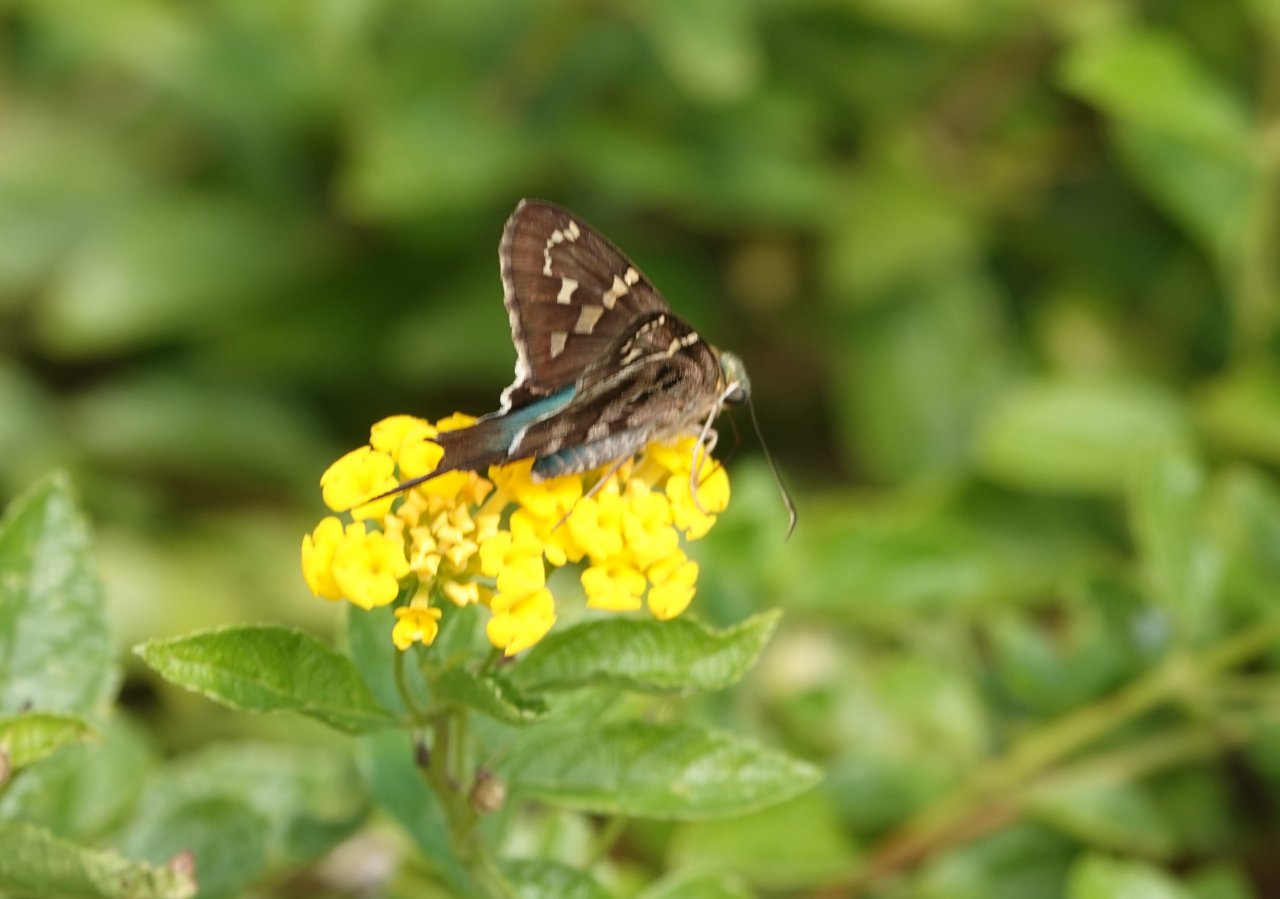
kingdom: Animalia
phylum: Arthropoda
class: Insecta
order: Lepidoptera
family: Hesperiidae
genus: Urbanus
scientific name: Urbanus proteus
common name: Long-tailed Skipper
